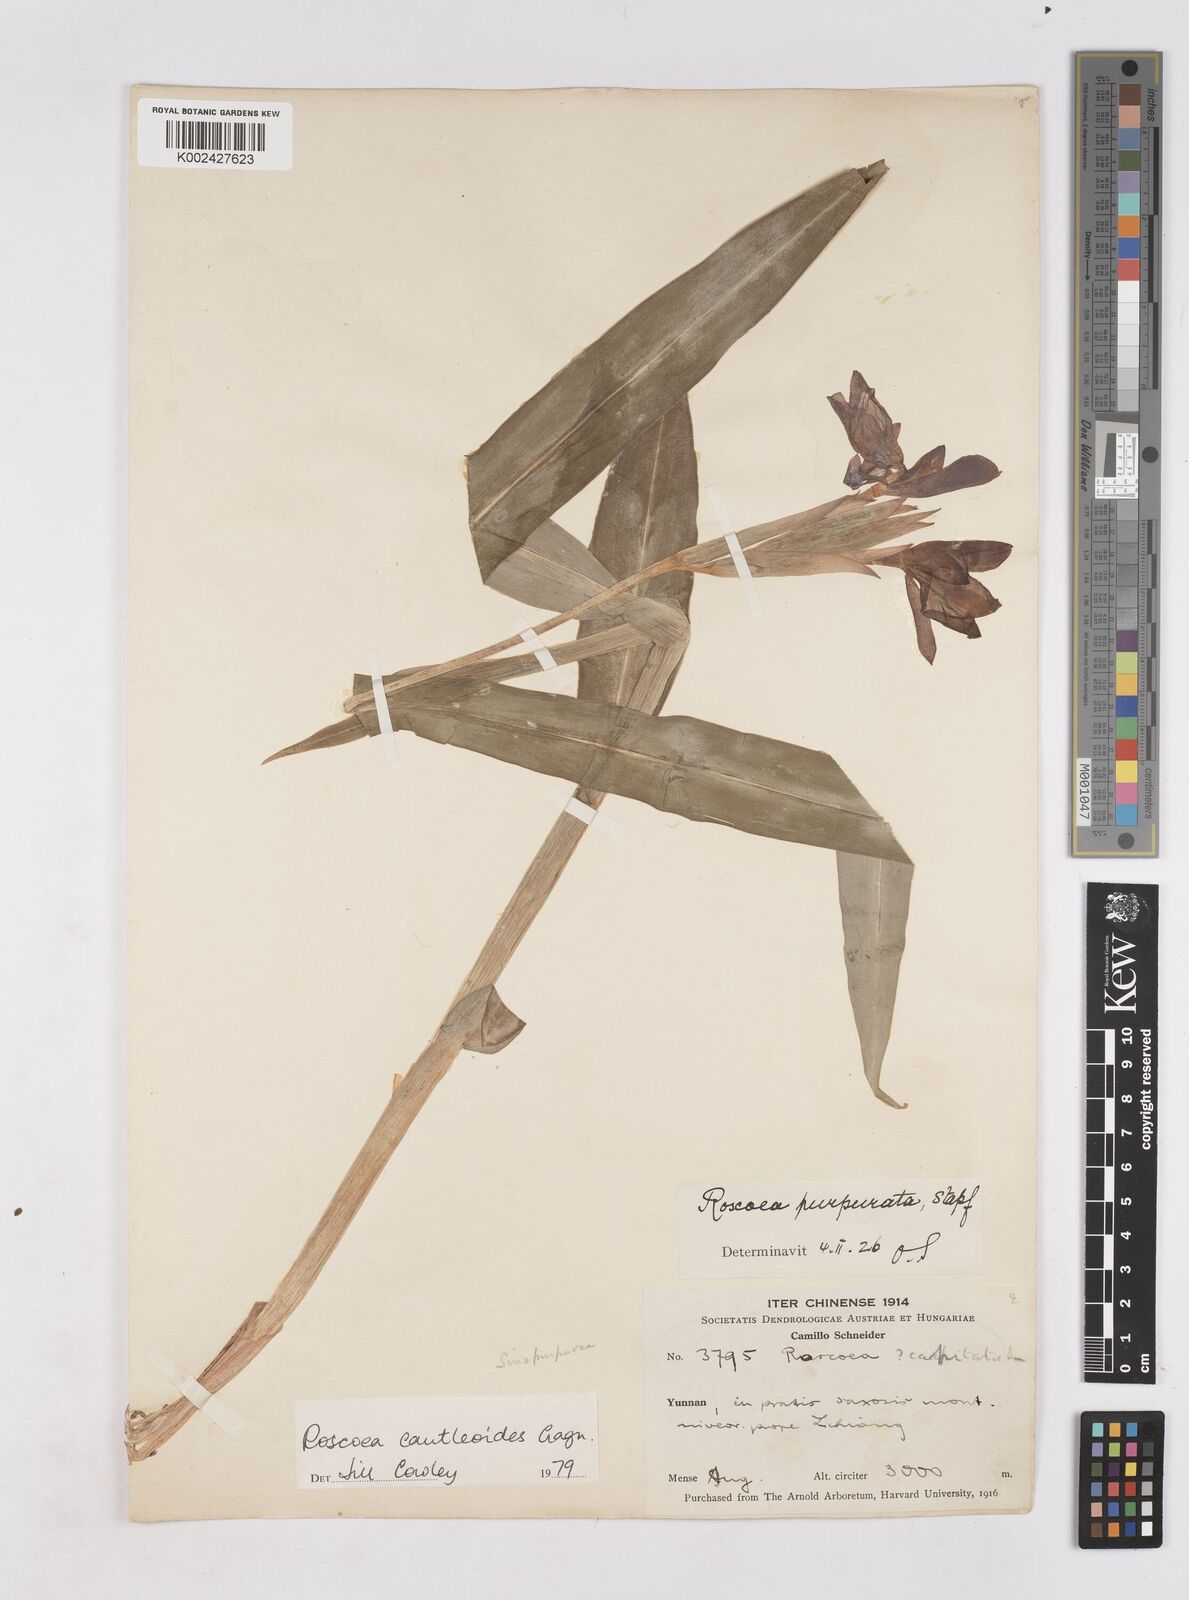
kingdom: Plantae
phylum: Tracheophyta
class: Liliopsida
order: Zingiberales
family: Zingiberaceae
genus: Roscoea
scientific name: Roscoea cautleyoides
